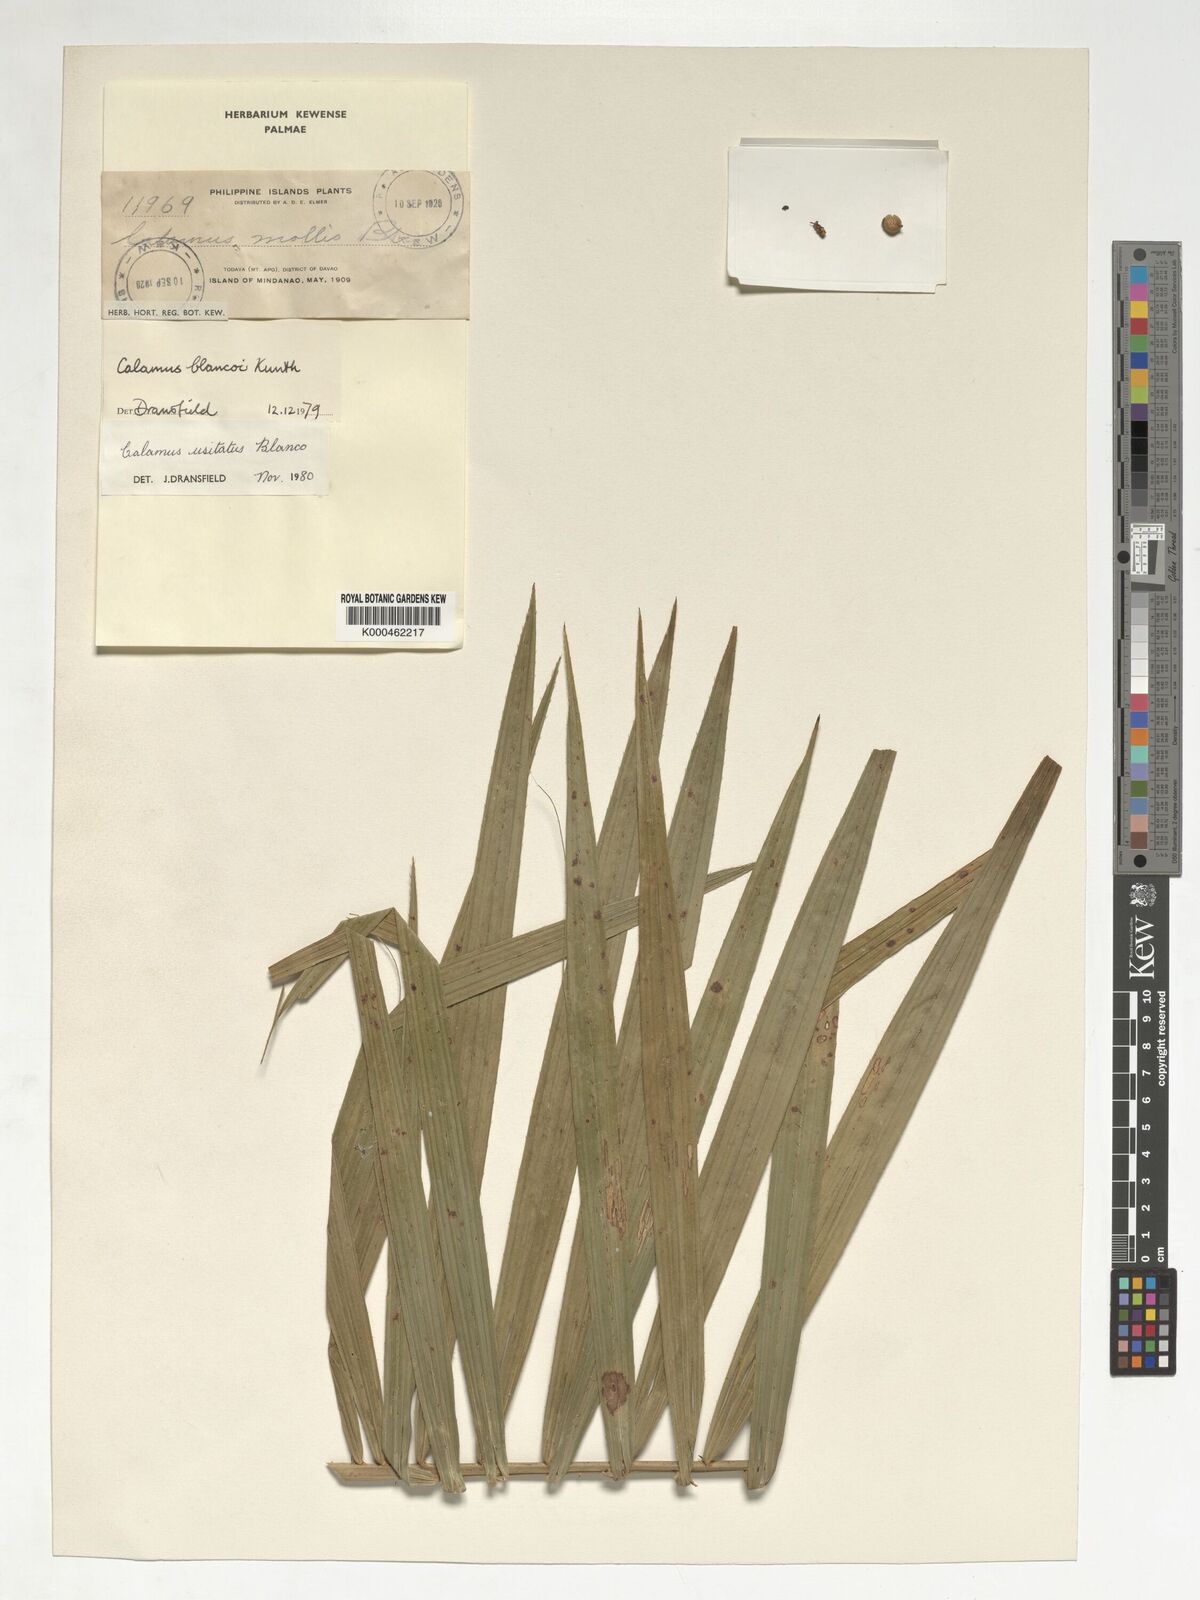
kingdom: Plantae
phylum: Tracheophyta
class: Liliopsida
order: Arecales
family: Arecaceae
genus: Calamus
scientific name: Calamus usitatus
